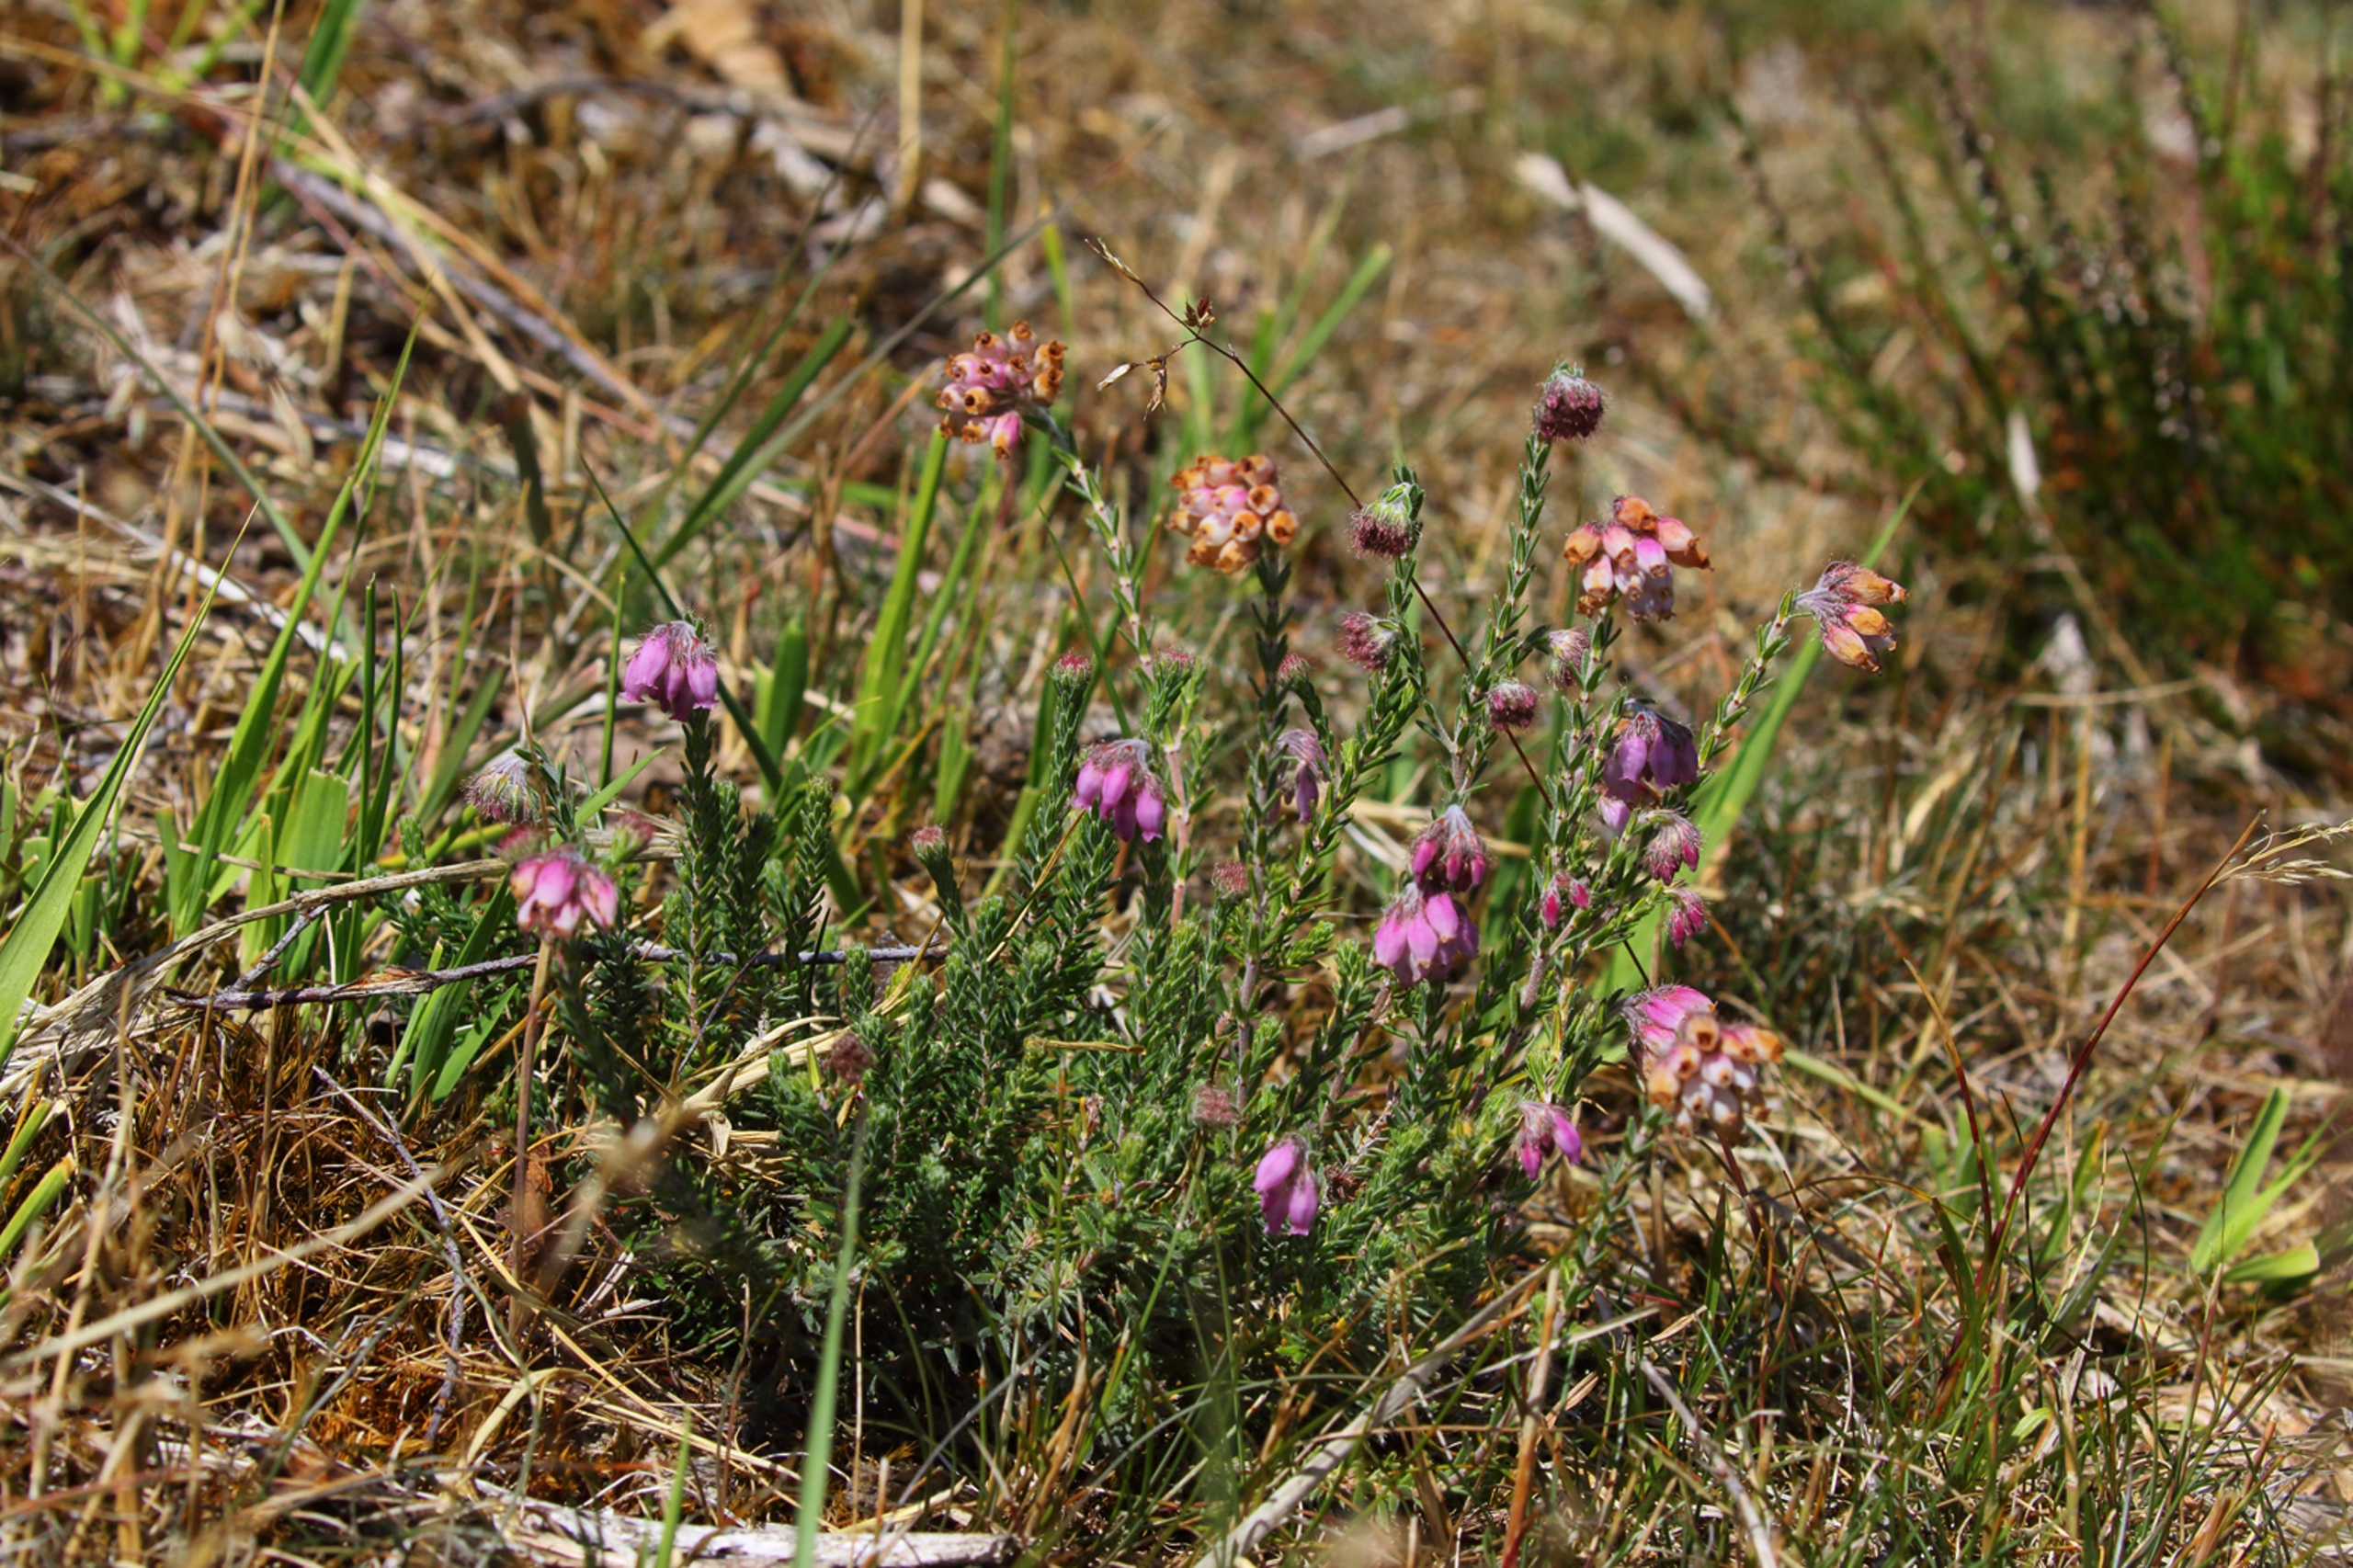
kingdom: Plantae
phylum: Tracheophyta
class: Magnoliopsida
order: Ericales
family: Ericaceae
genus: Erica
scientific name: Erica tetralix
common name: Klokkelyng
